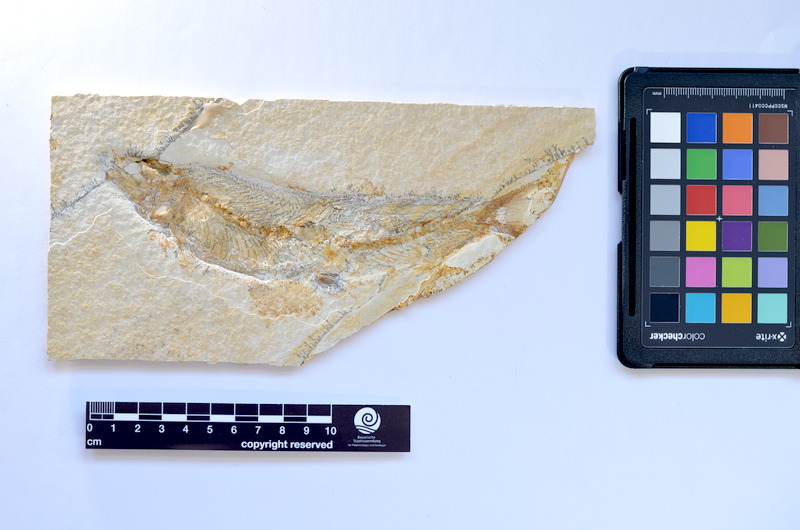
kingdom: Animalia
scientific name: Animalia
